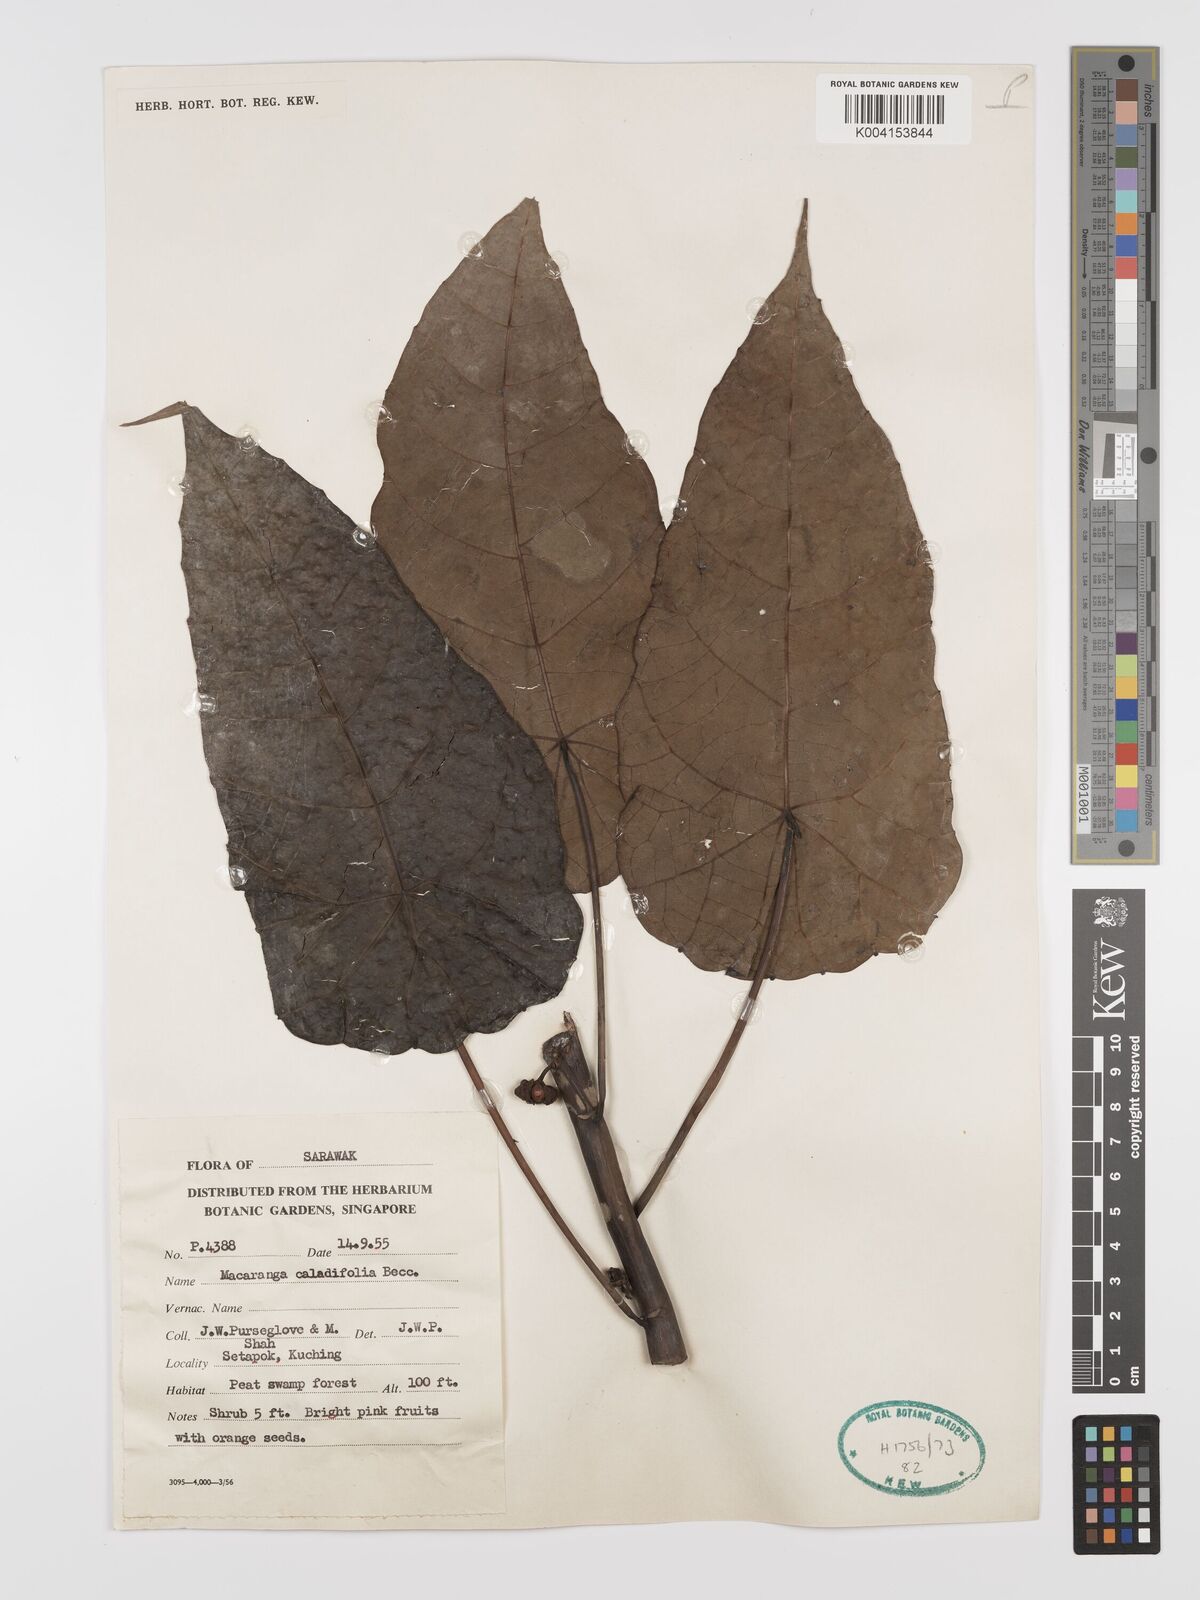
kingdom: Plantae
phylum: Tracheophyta
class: Magnoliopsida
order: Malpighiales
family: Euphorbiaceae
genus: Macaranga
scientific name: Macaranga caladiifolia
